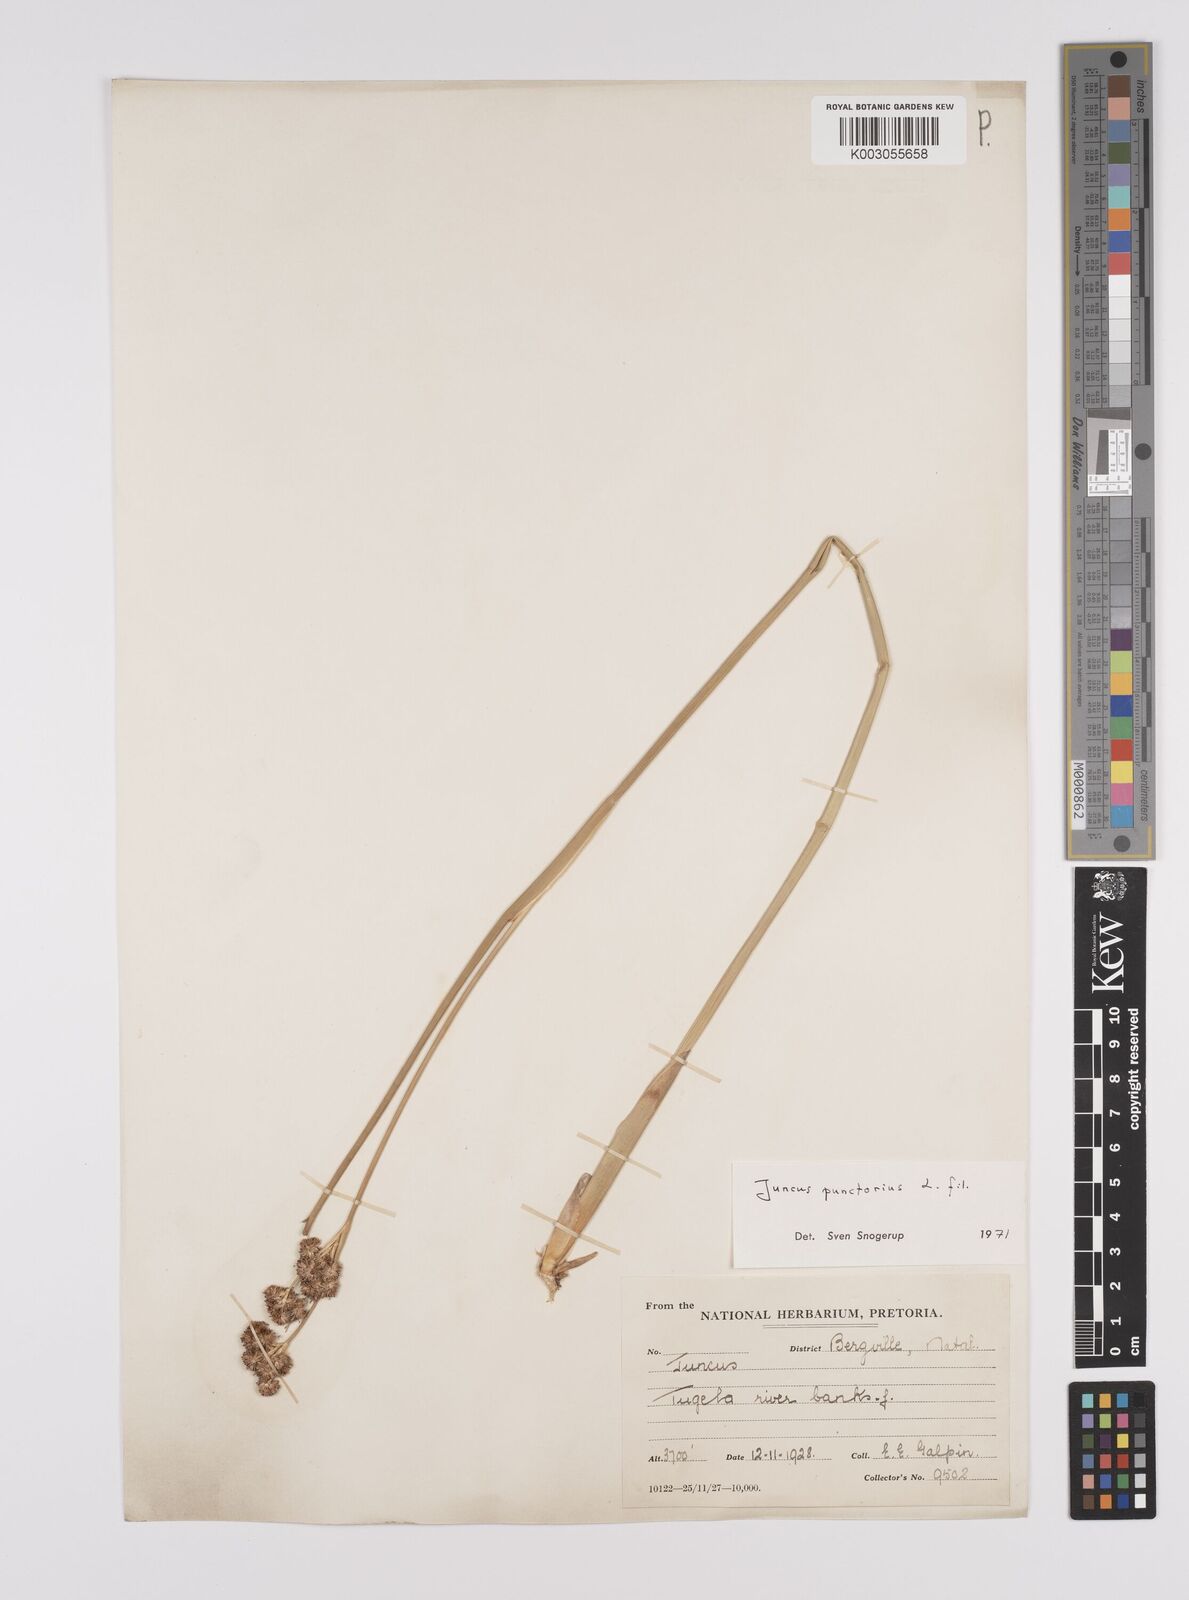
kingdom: Plantae
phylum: Tracheophyta
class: Liliopsida
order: Poales
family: Juncaceae
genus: Juncus
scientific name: Juncus punctorius
